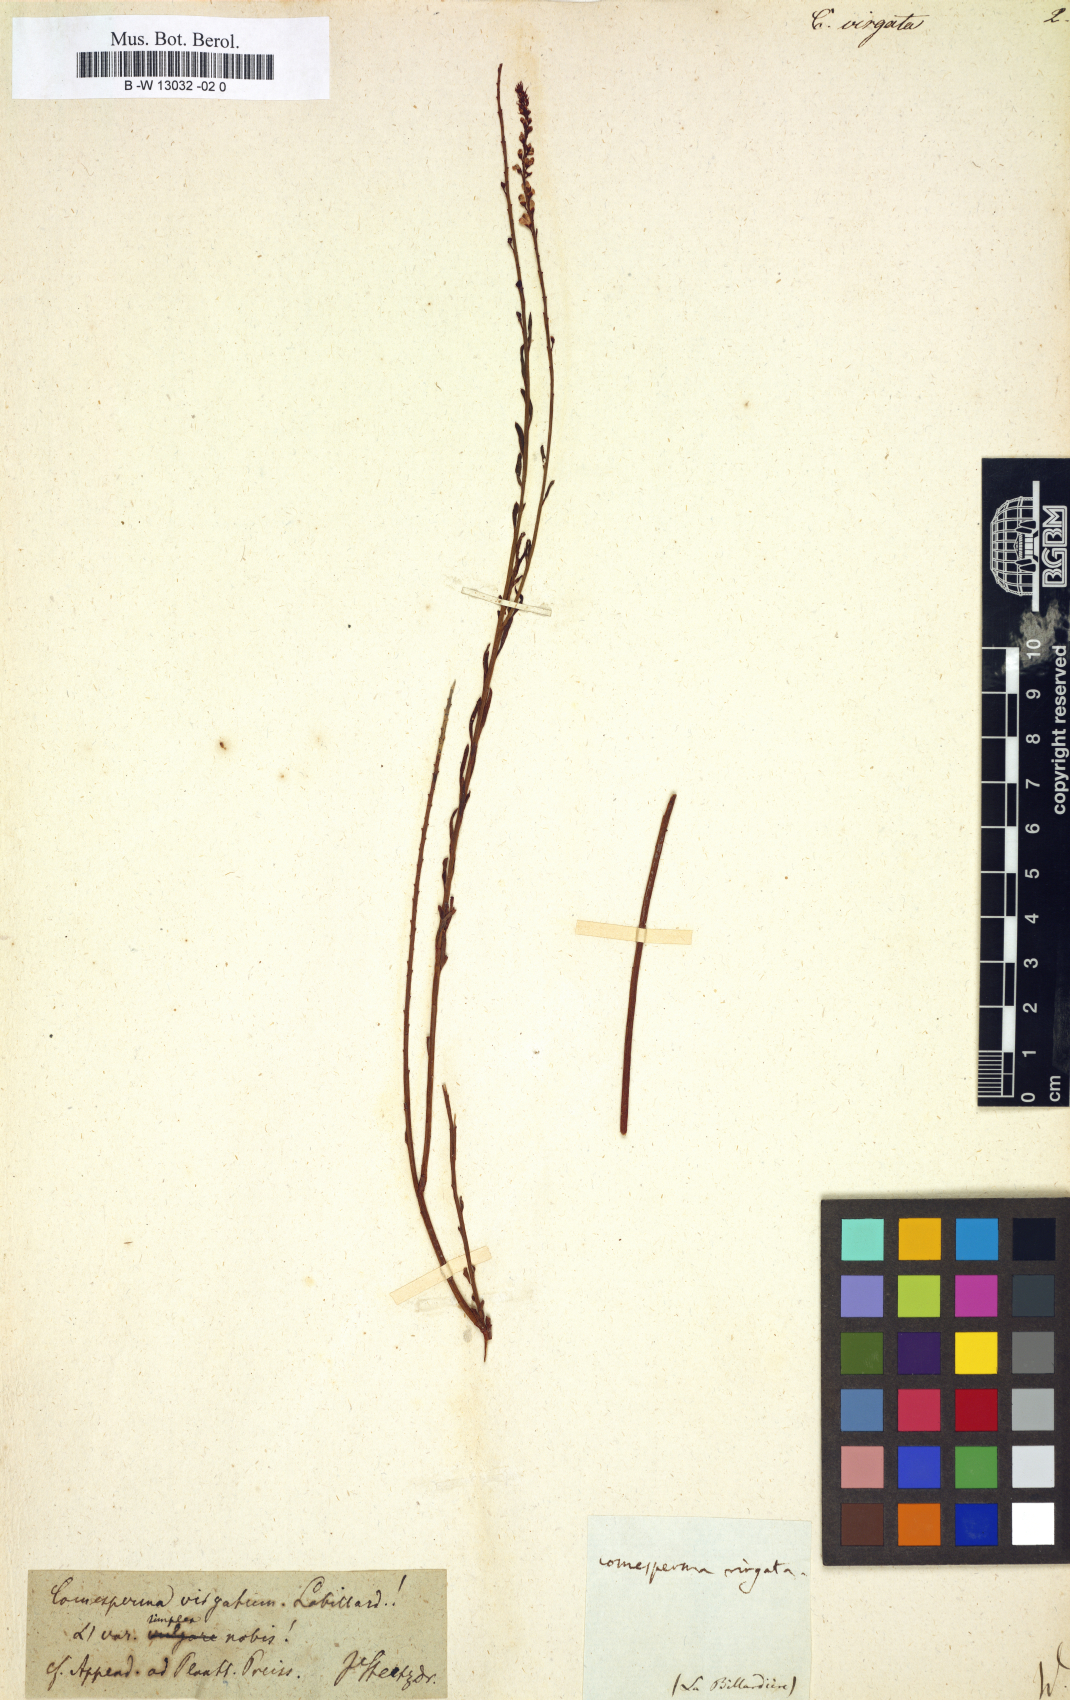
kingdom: Plantae
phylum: Tracheophyta
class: Magnoliopsida
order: Fabales
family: Polygalaceae
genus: Comesperma
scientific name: Comesperma virgatum
